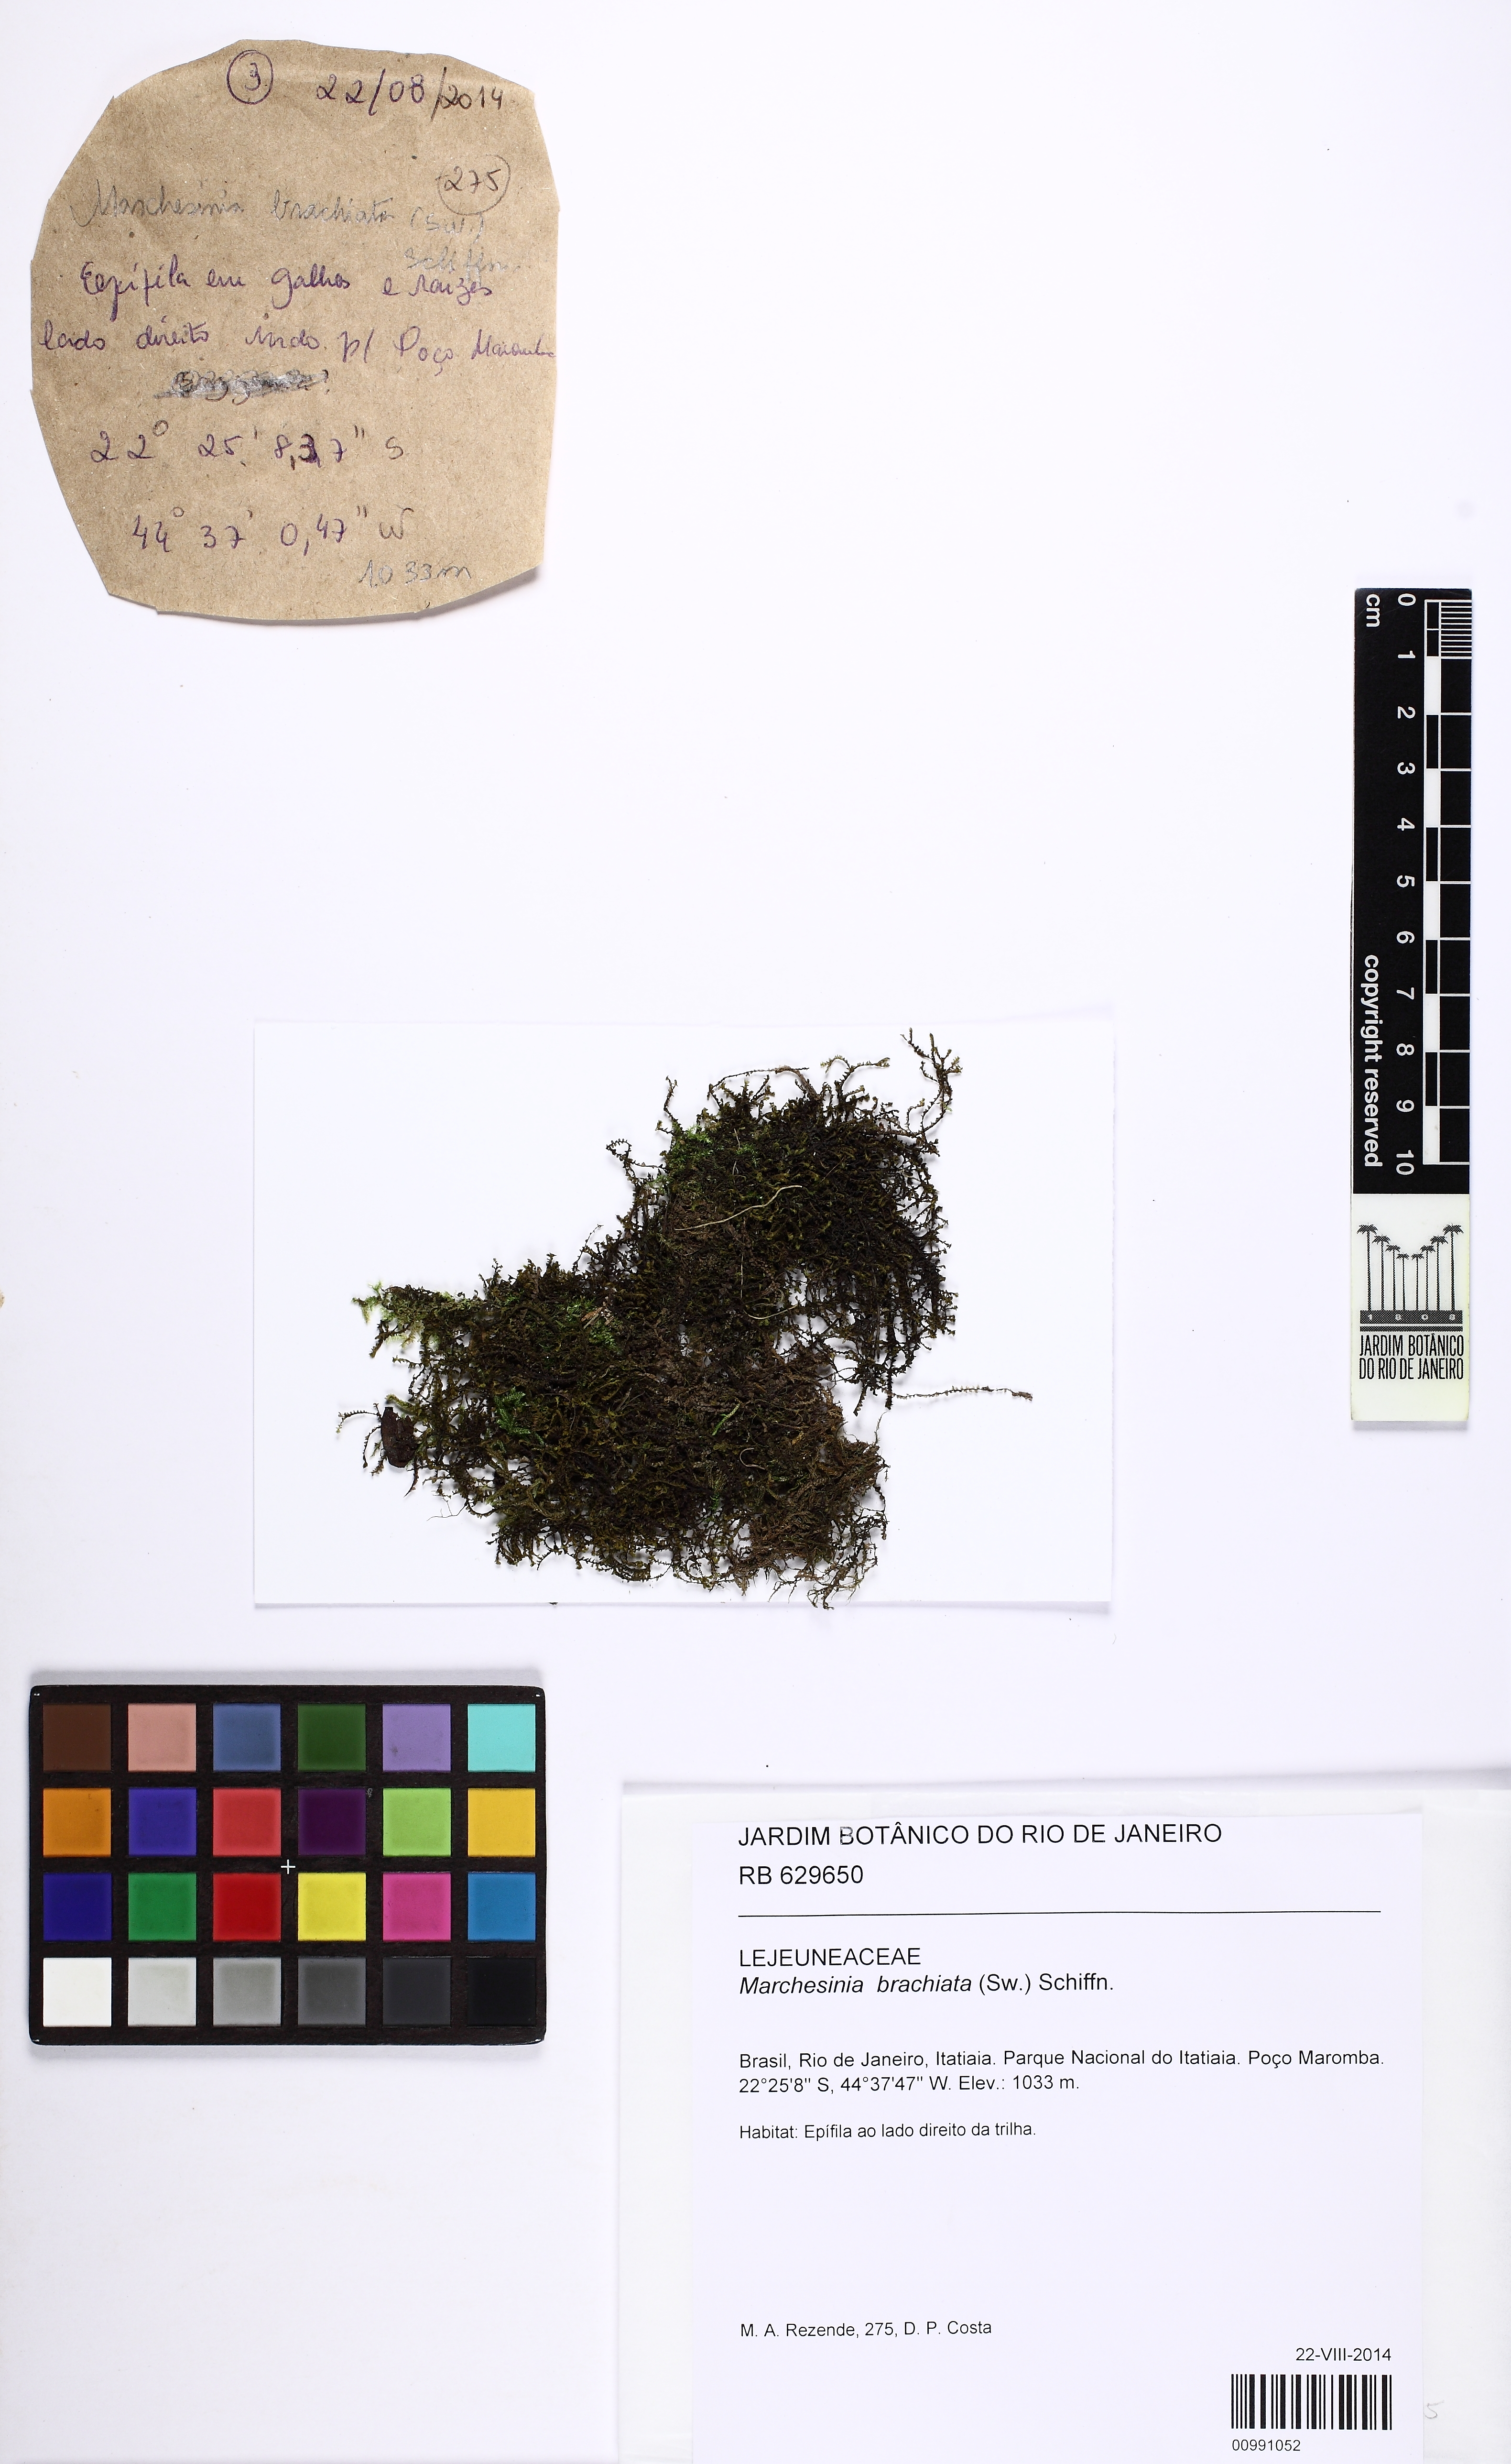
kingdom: Plantae
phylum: Marchantiophyta
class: Jungermanniopsida
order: Porellales
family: Lejeuneaceae
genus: Marchesinia
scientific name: Marchesinia brachiata
